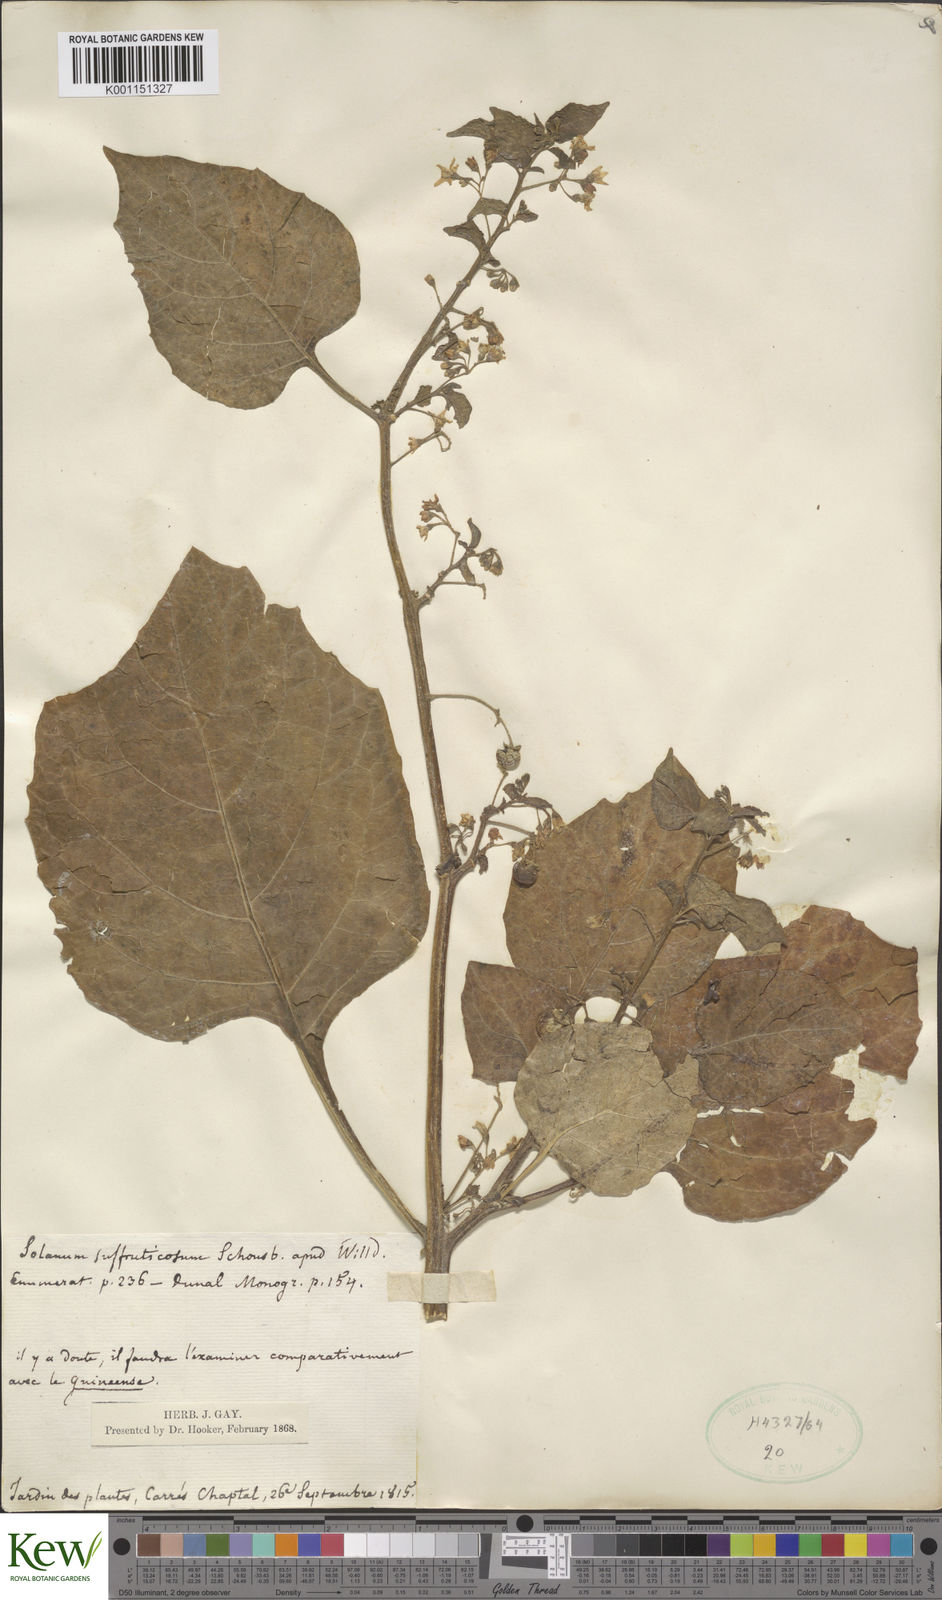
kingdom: Plantae
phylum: Tracheophyta
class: Magnoliopsida
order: Solanales
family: Solanaceae
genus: Solanum
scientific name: Solanum nigrum
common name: Black nightshade
